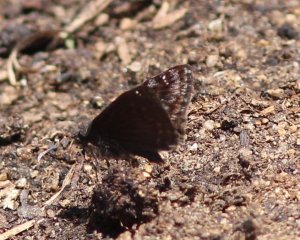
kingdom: Animalia
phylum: Arthropoda
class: Insecta
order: Lepidoptera
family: Hesperiidae
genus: Erynnis
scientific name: Erynnis
